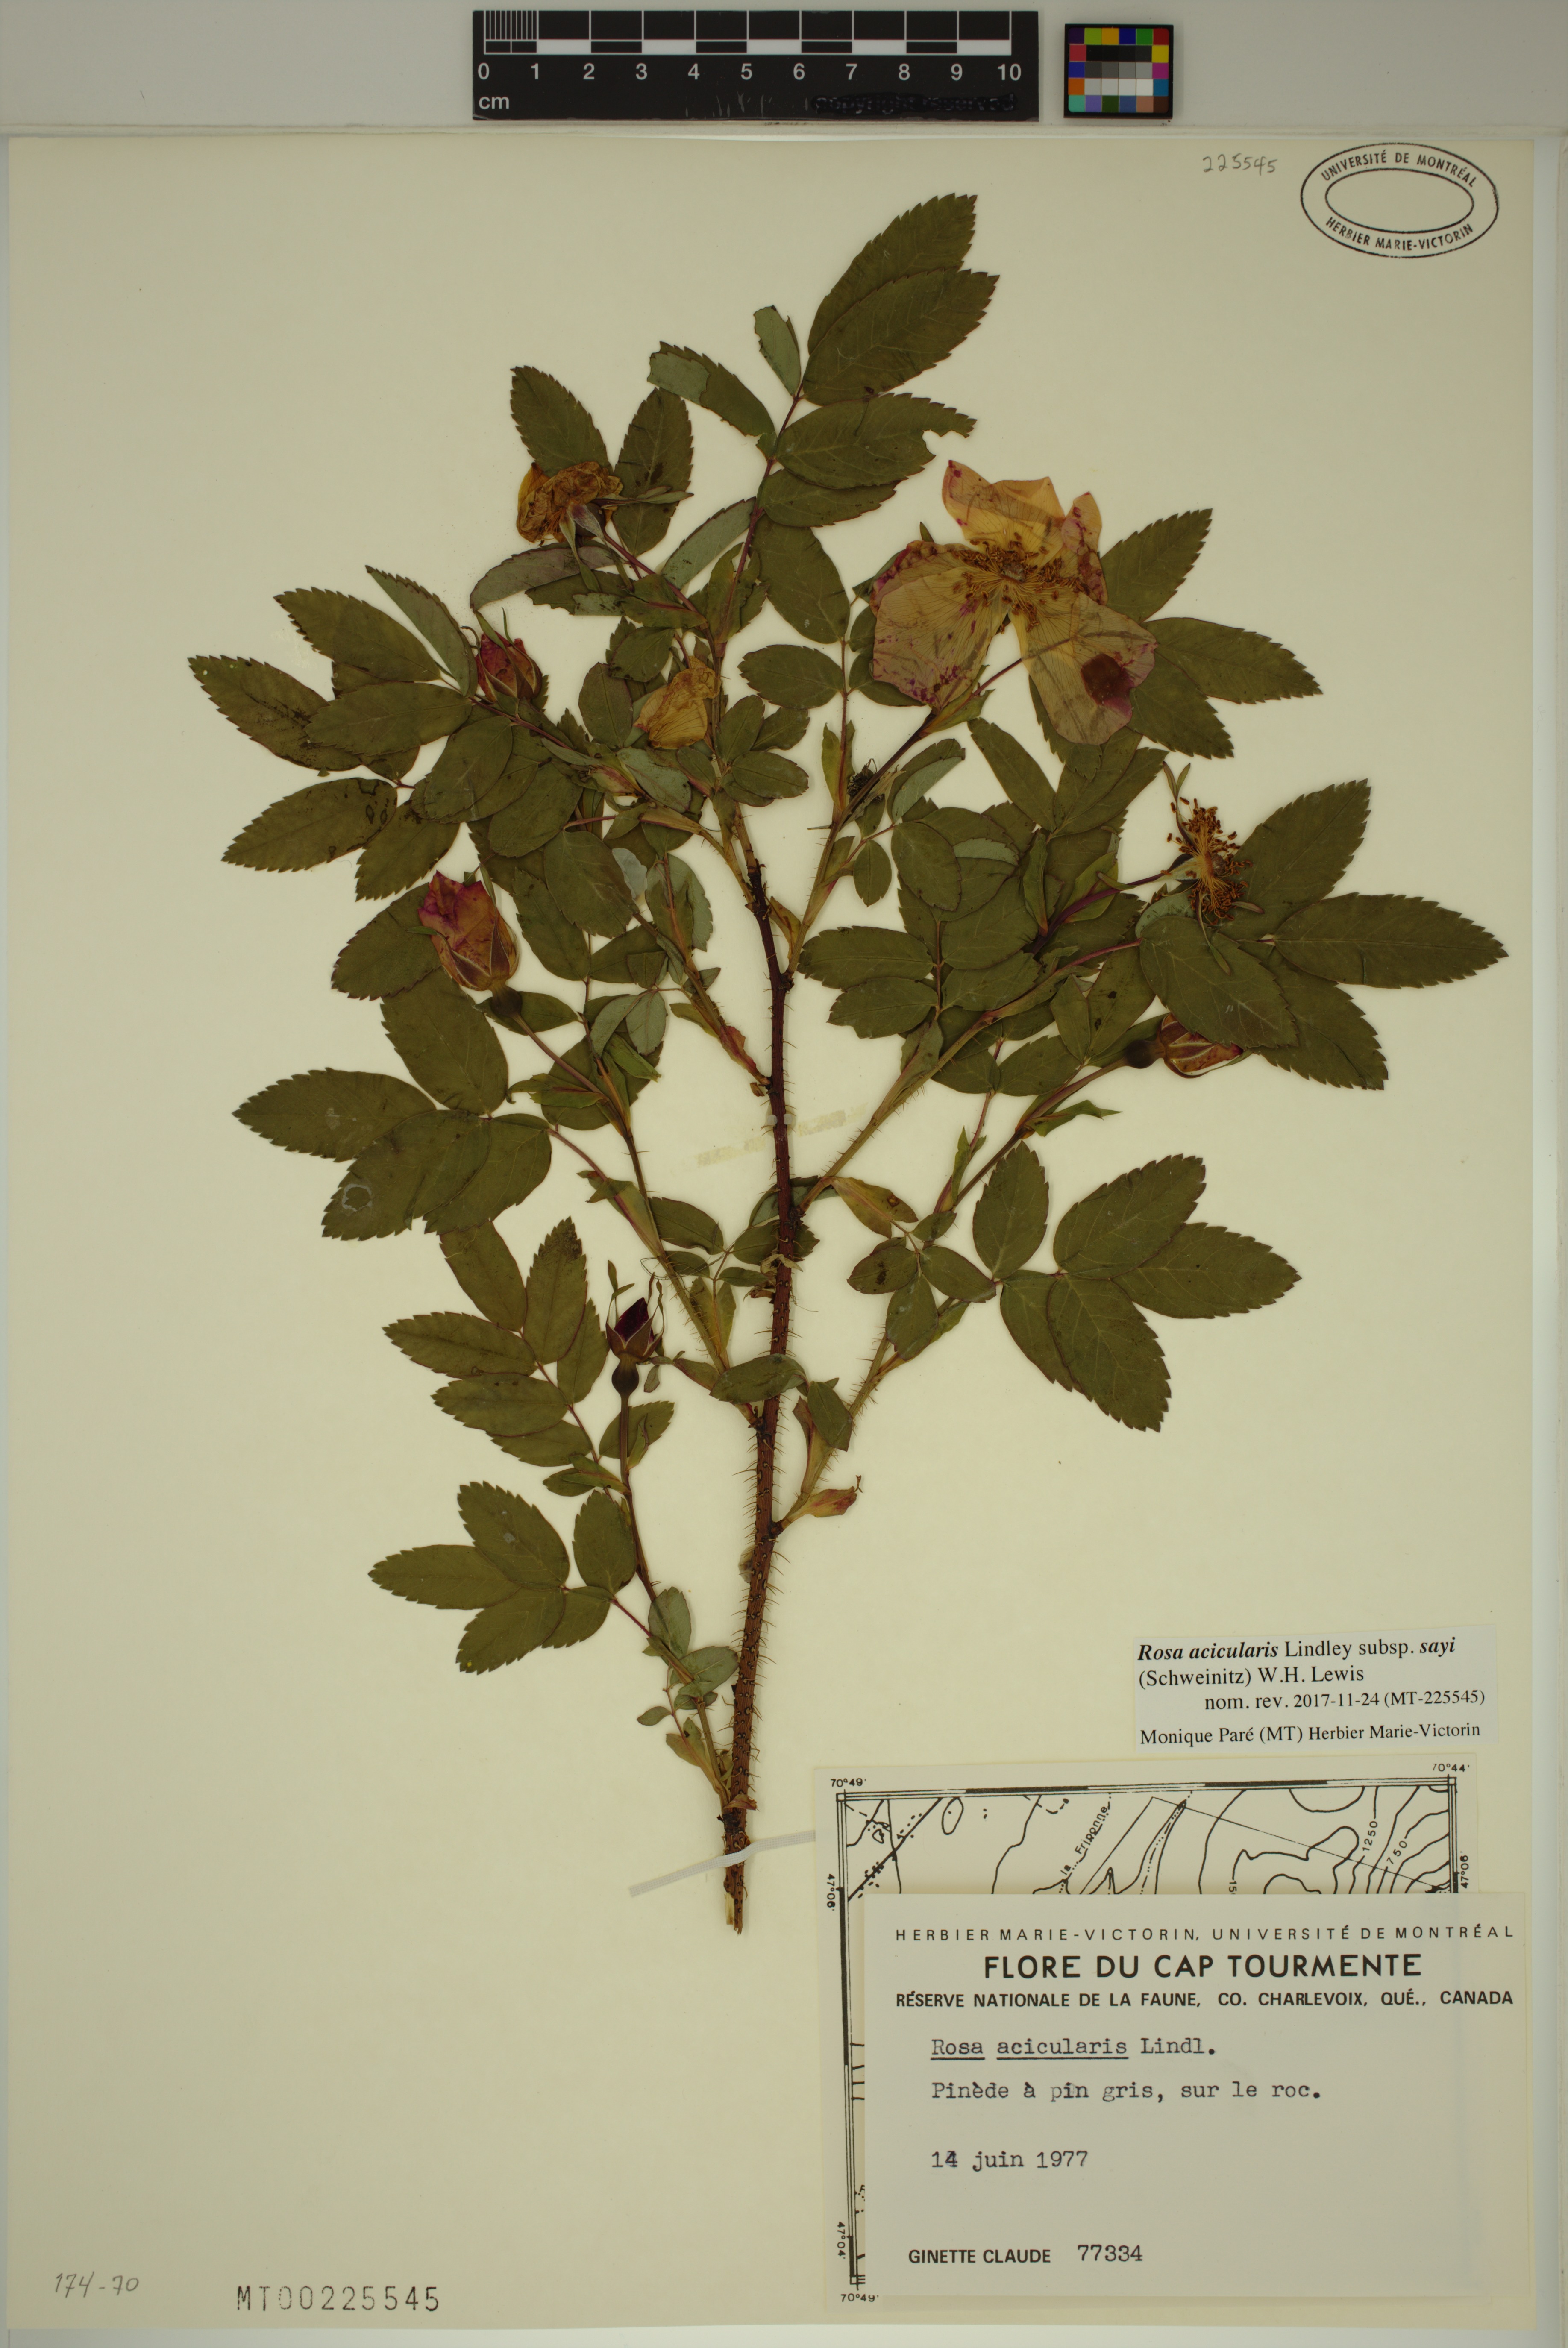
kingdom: Plantae
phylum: Tracheophyta
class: Magnoliopsida
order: Rosales
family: Rosaceae
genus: Rosa
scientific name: Rosa acicularis
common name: Prickly rose
